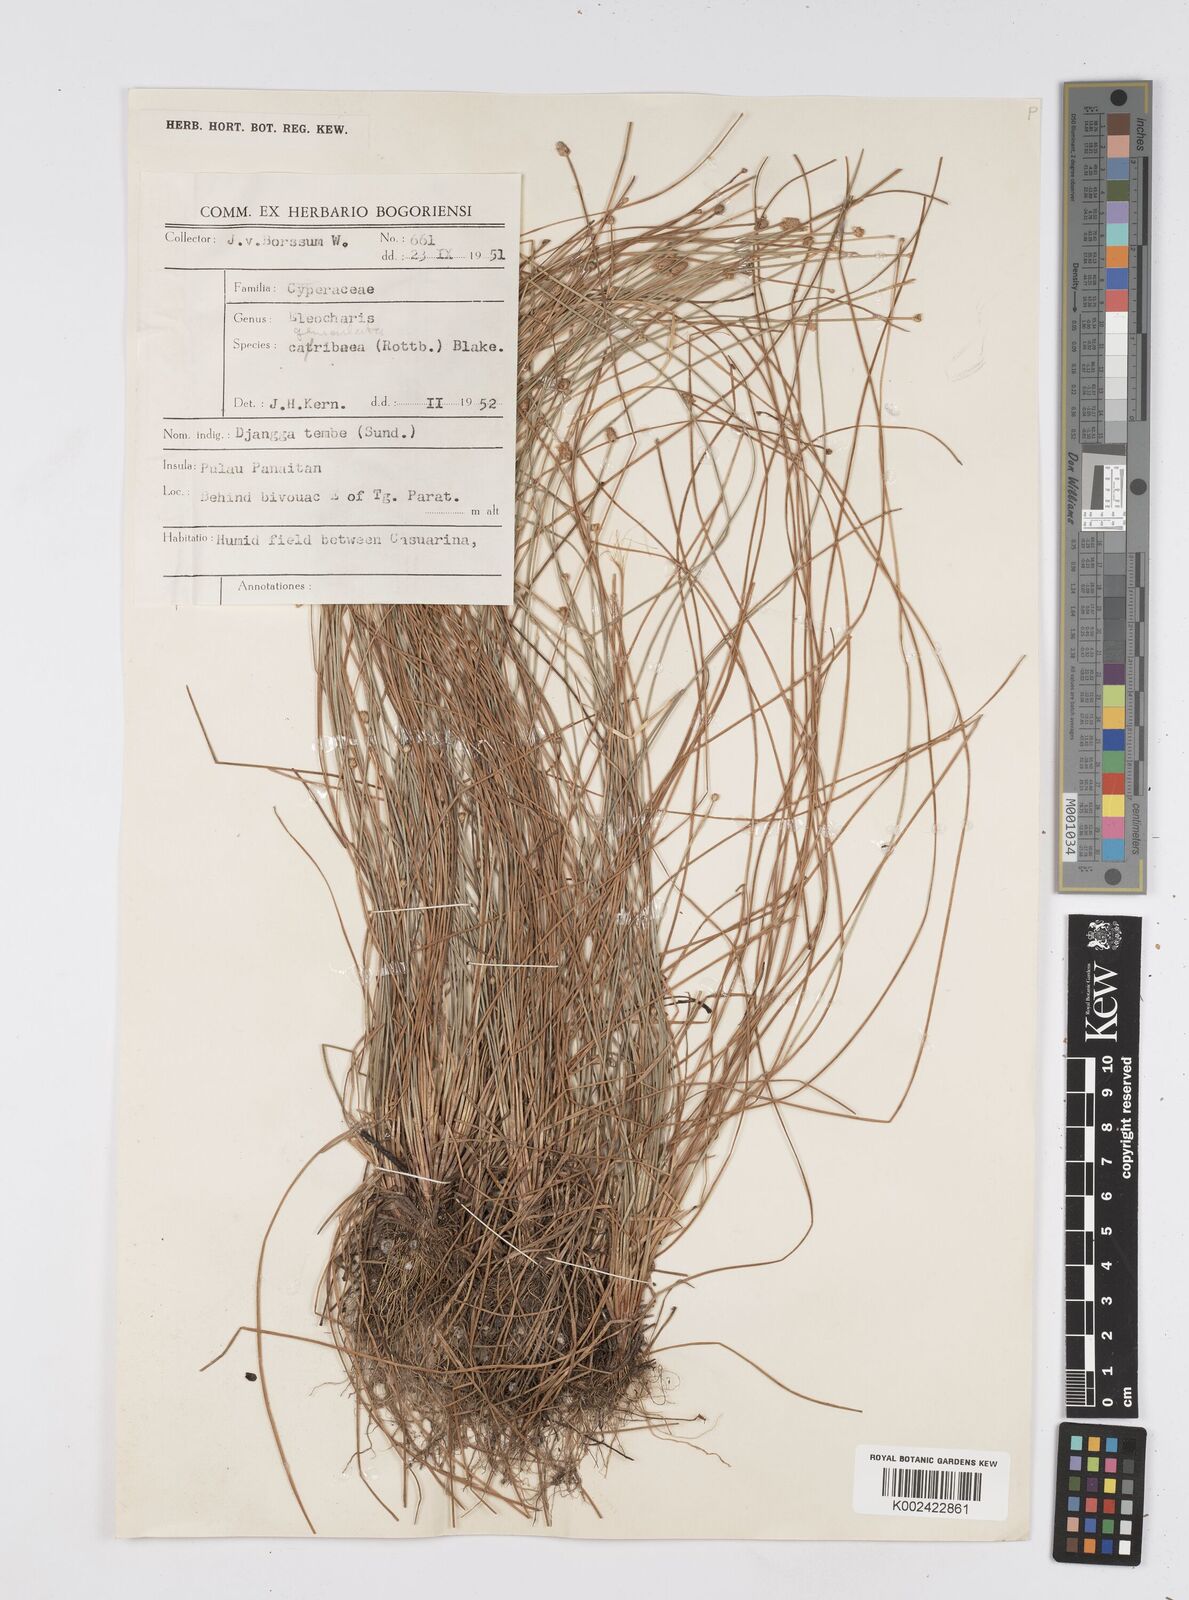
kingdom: Plantae
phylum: Tracheophyta
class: Liliopsida
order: Poales
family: Cyperaceae
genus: Eleocharis
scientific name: Eleocharis geniculata
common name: Canada spikesedge
